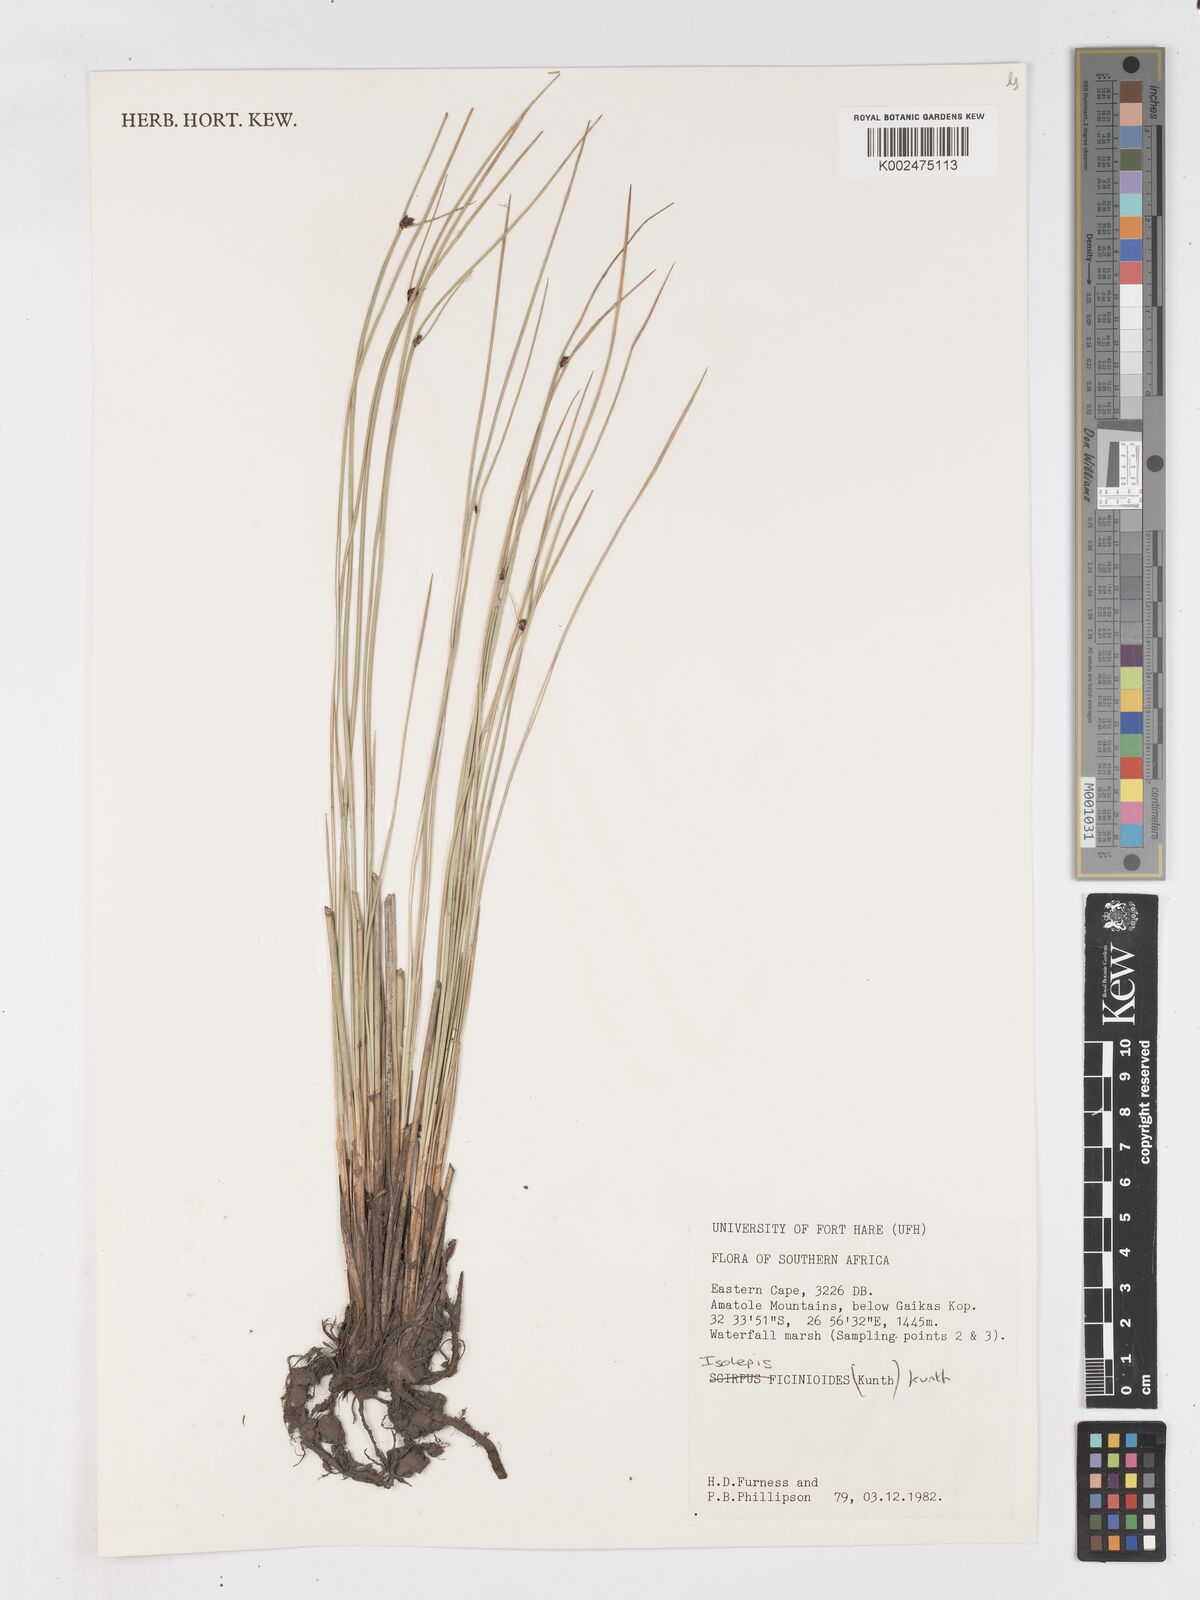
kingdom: Plantae
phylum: Tracheophyta
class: Liliopsida
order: Poales
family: Cyperaceae
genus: Ficinia
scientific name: Ficinia filiformis
